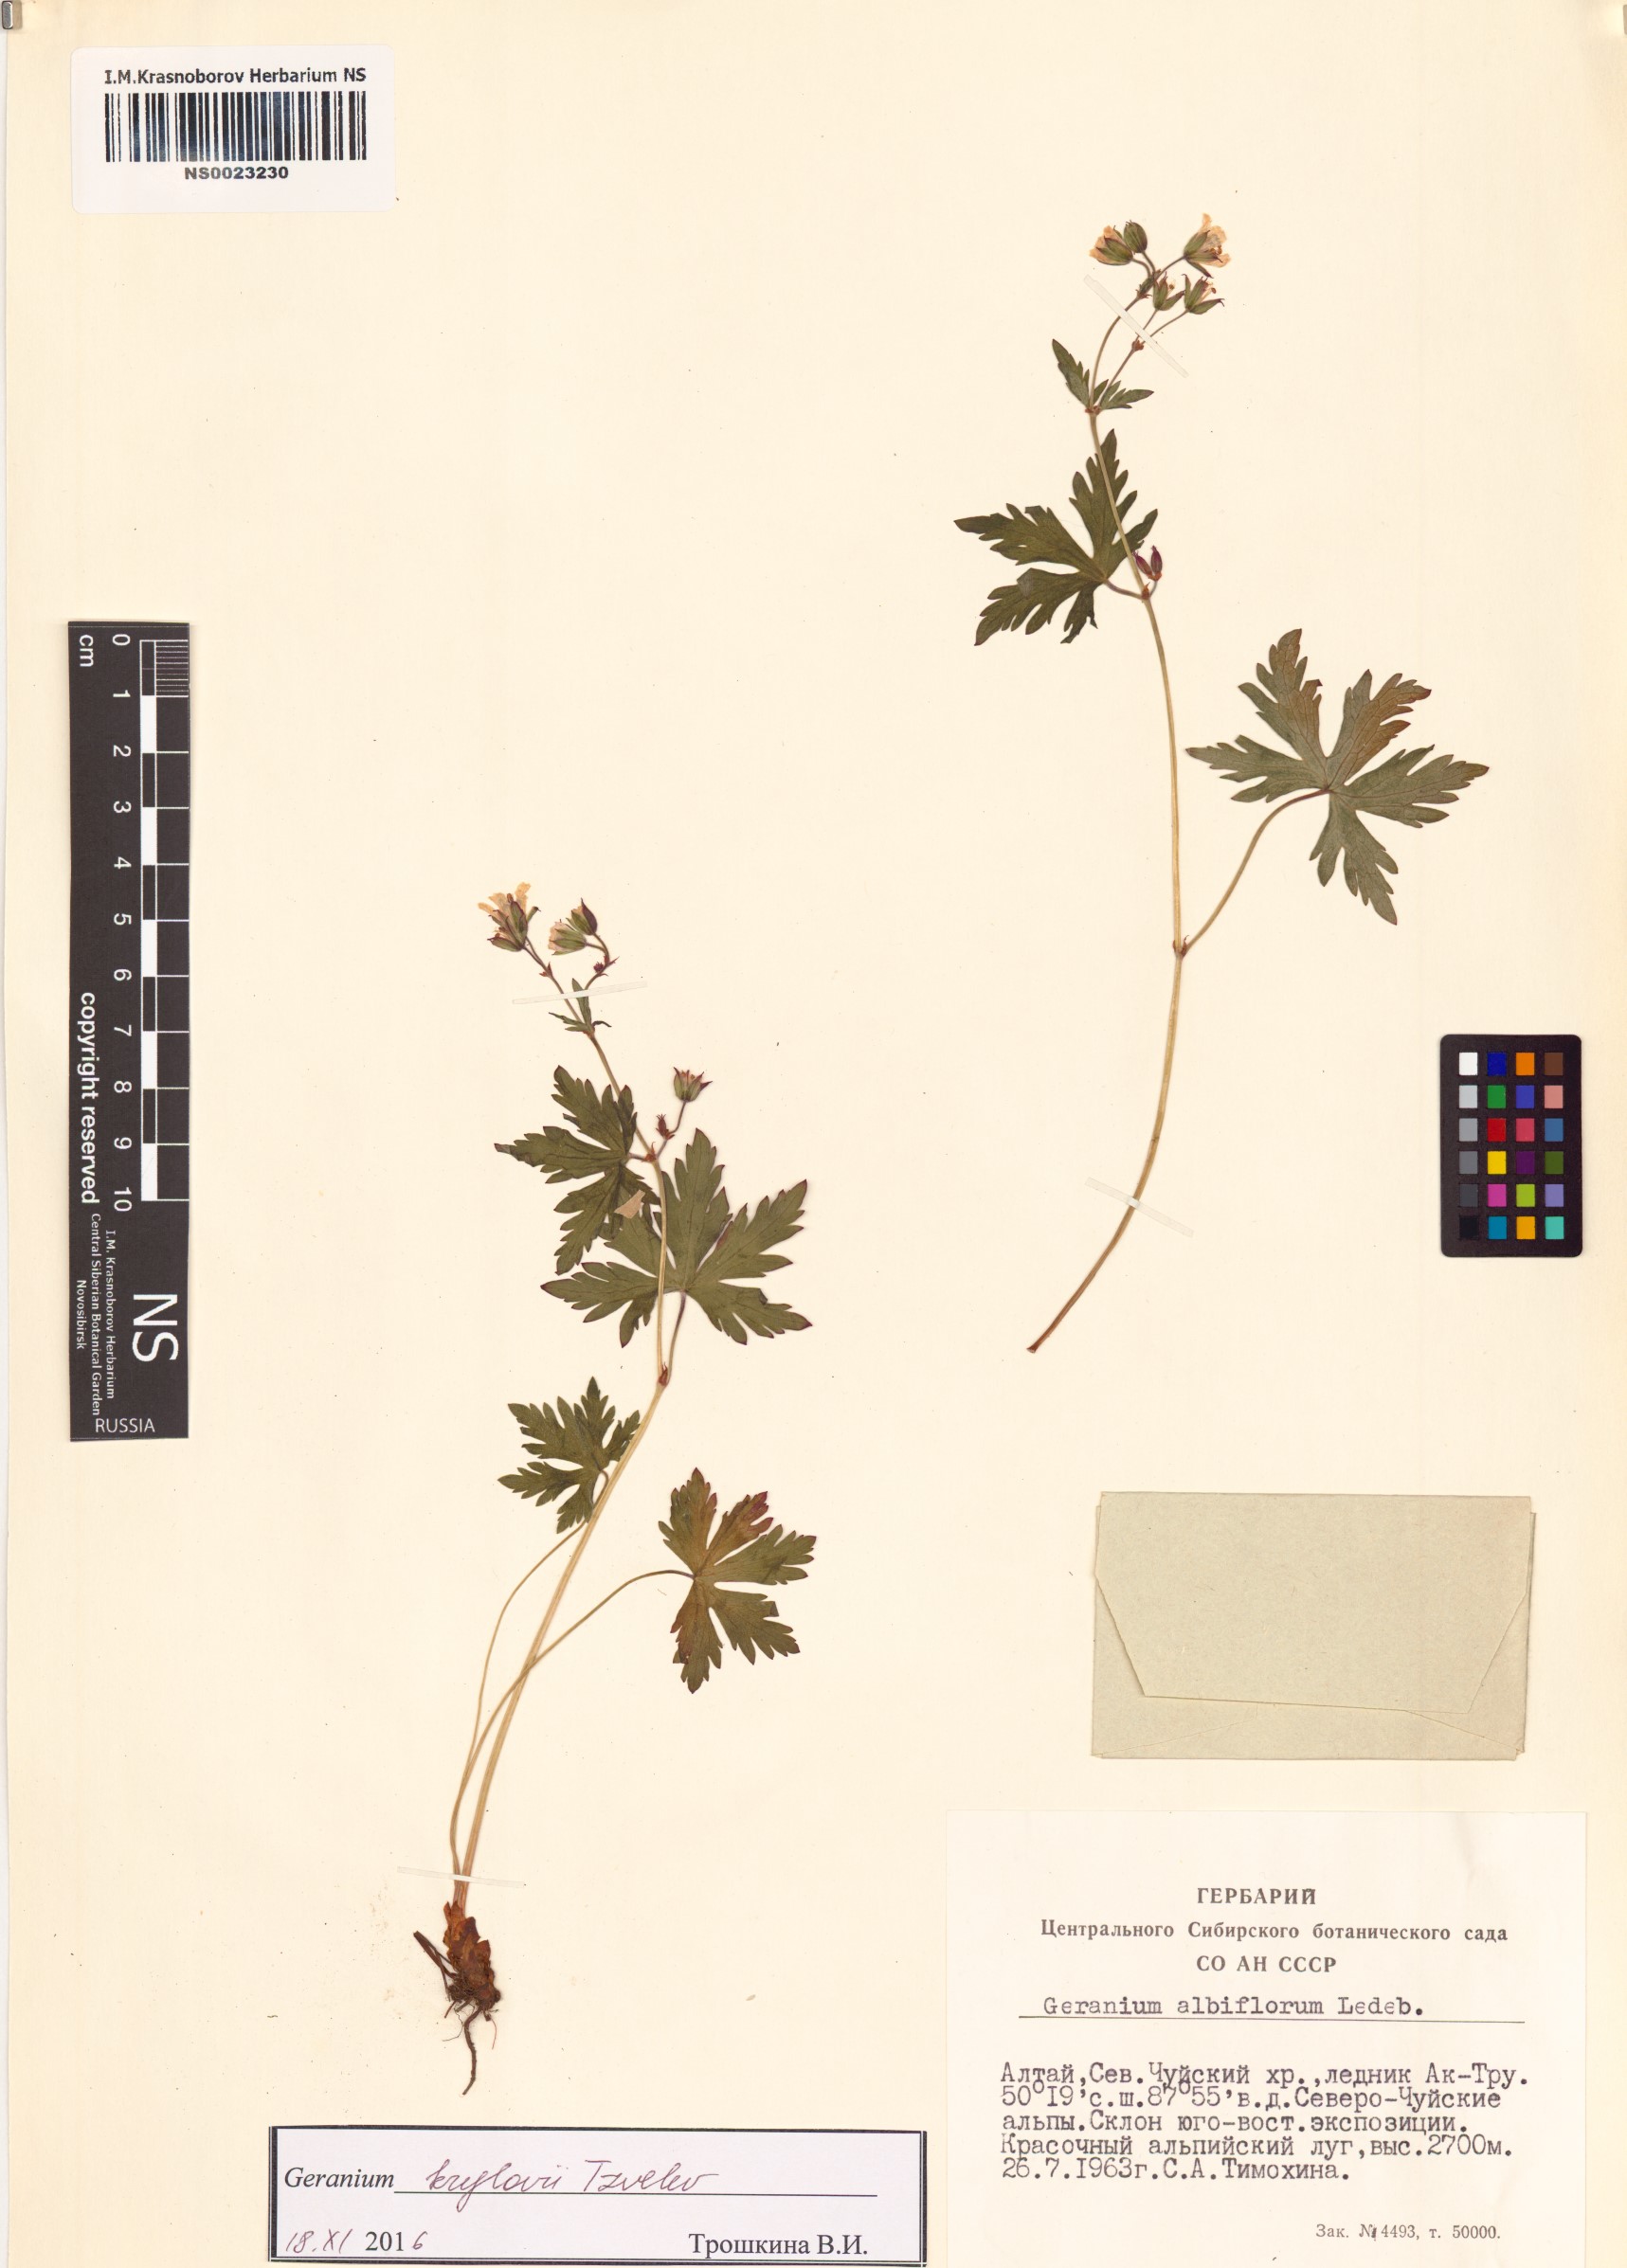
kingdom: Plantae
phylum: Tracheophyta
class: Magnoliopsida
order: Geraniales
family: Geraniaceae
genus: Geranium
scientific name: Geranium sylvaticum
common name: Wood crane's-bill
